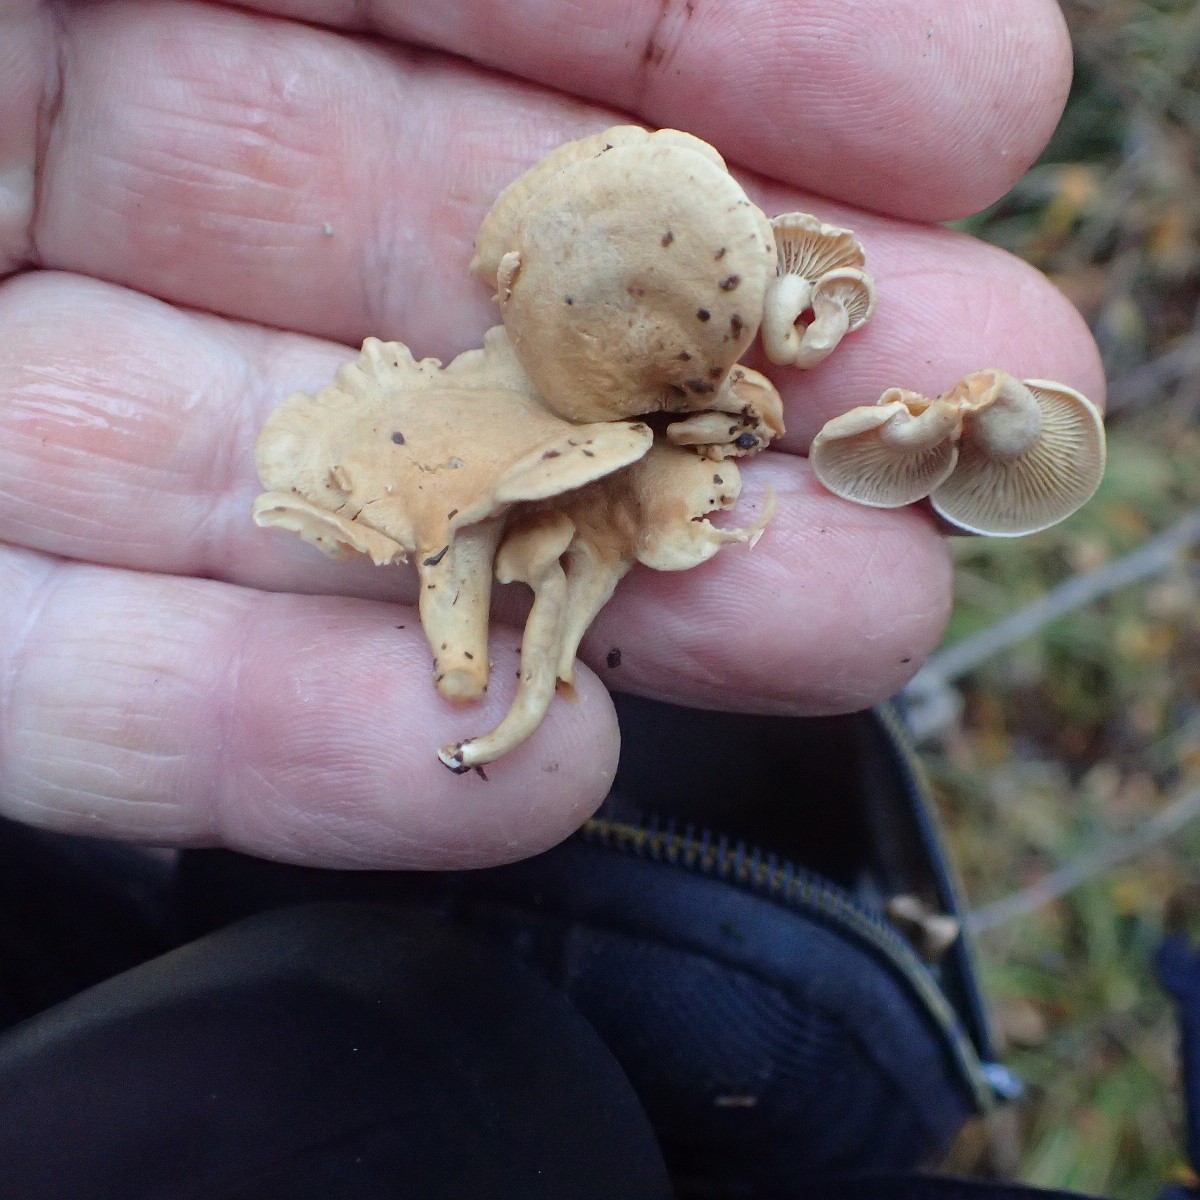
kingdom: Fungi
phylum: Basidiomycota
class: Agaricomycetes
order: Agaricales
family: Mycenaceae
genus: Panellus
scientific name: Panellus stipticus
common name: kliddet epaulethat
